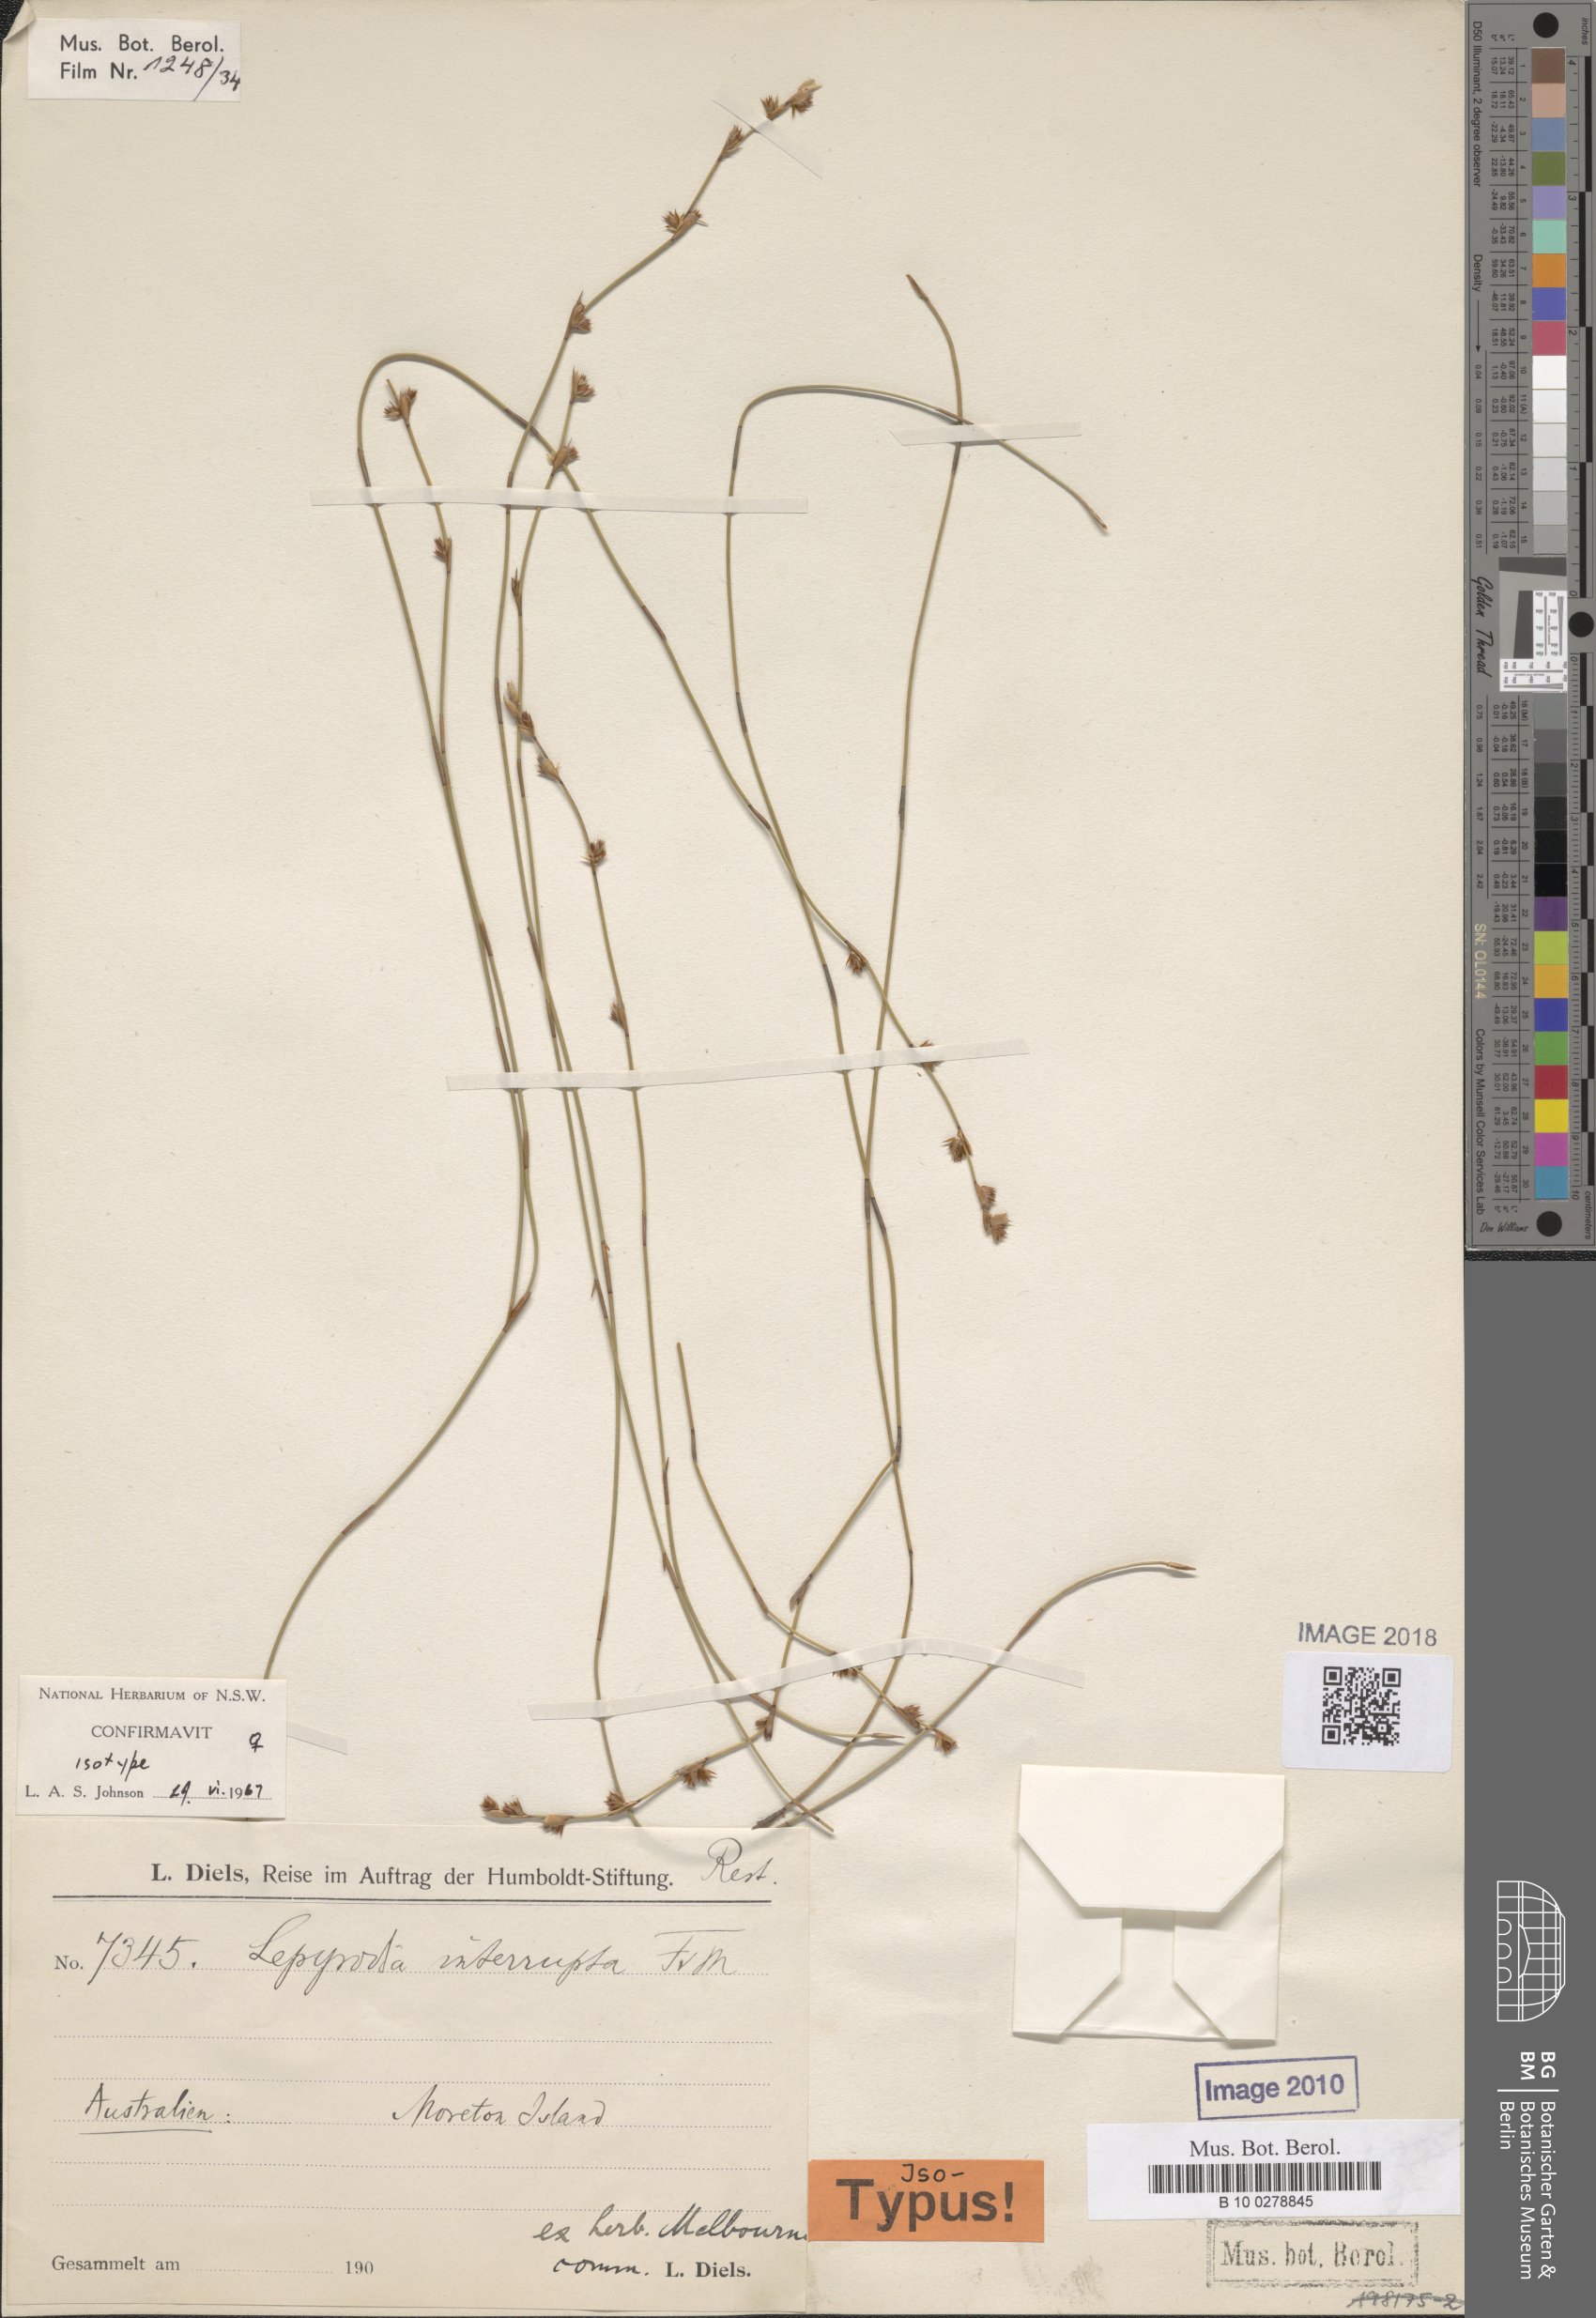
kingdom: Plantae
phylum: Tracheophyta
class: Liliopsida
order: Poales
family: Restionaceae
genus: Sporadanthus
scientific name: Sporadanthus interruptus
